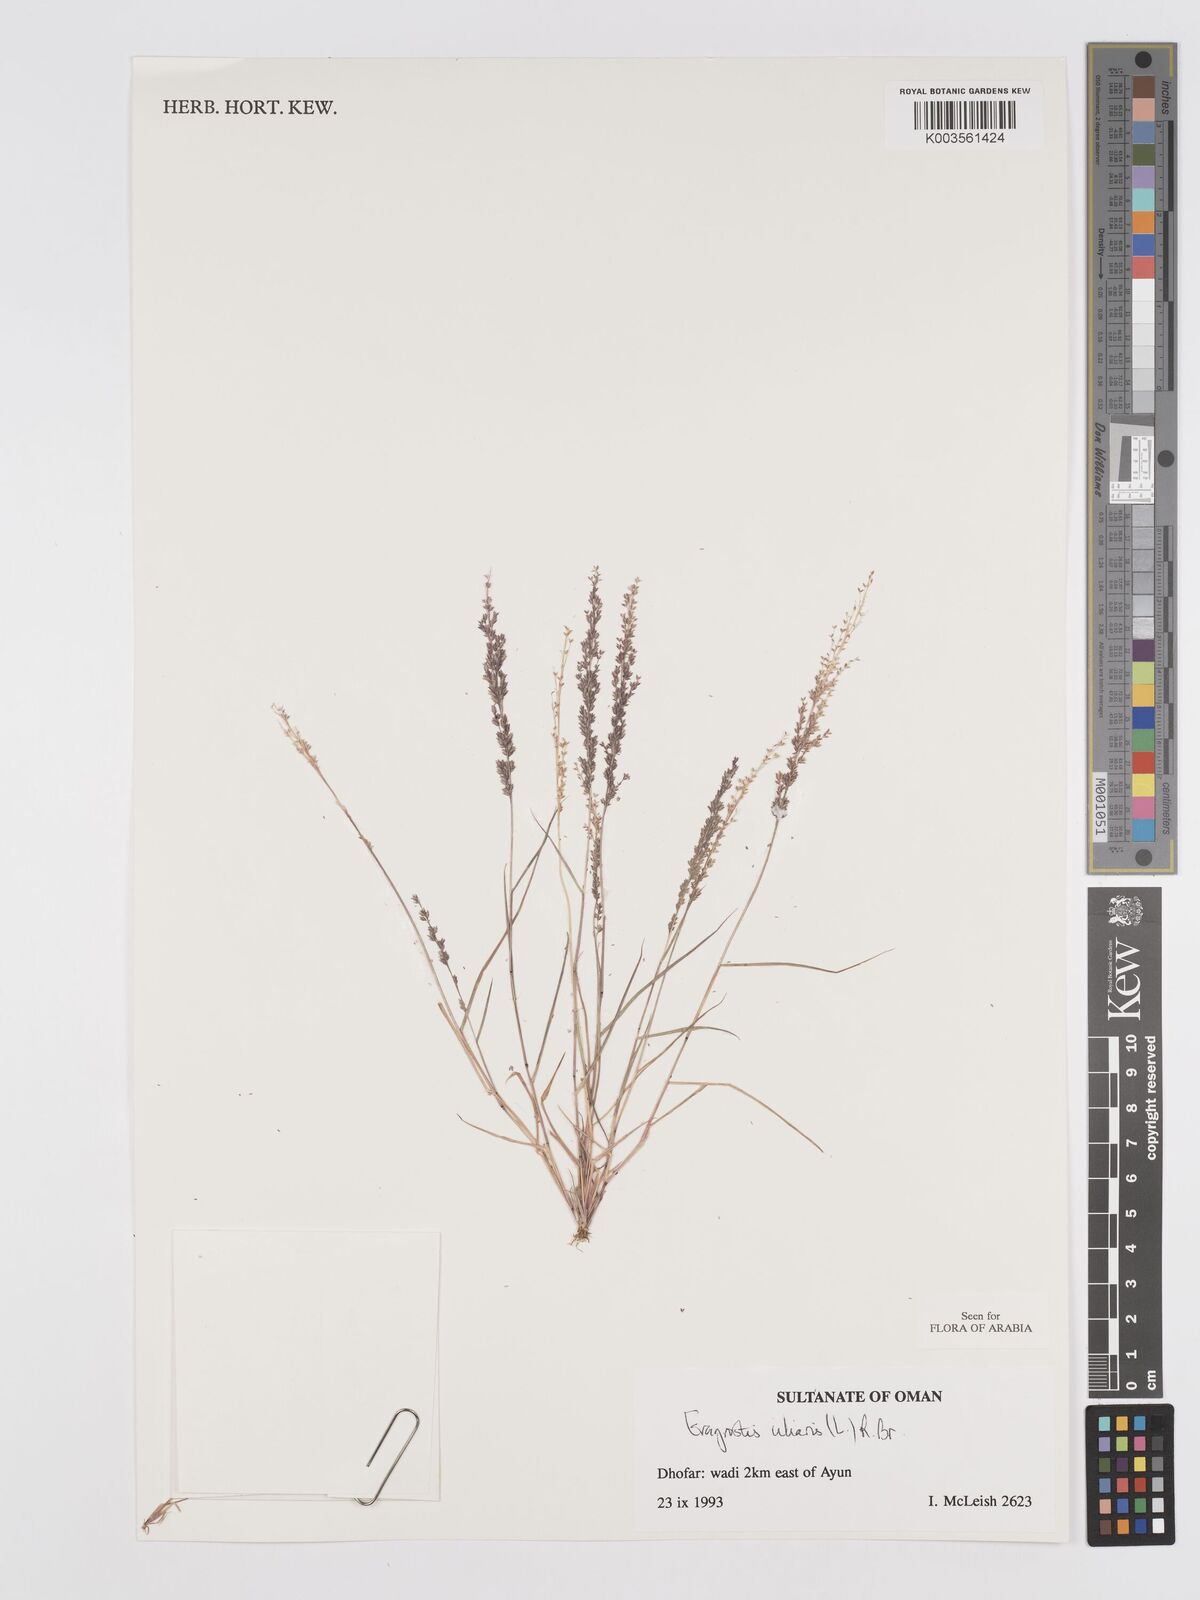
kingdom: Plantae
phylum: Tracheophyta
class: Liliopsida
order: Poales
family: Poaceae
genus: Eragrostis
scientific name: Eragrostis ciliaris
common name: Gophertail lovegrass
